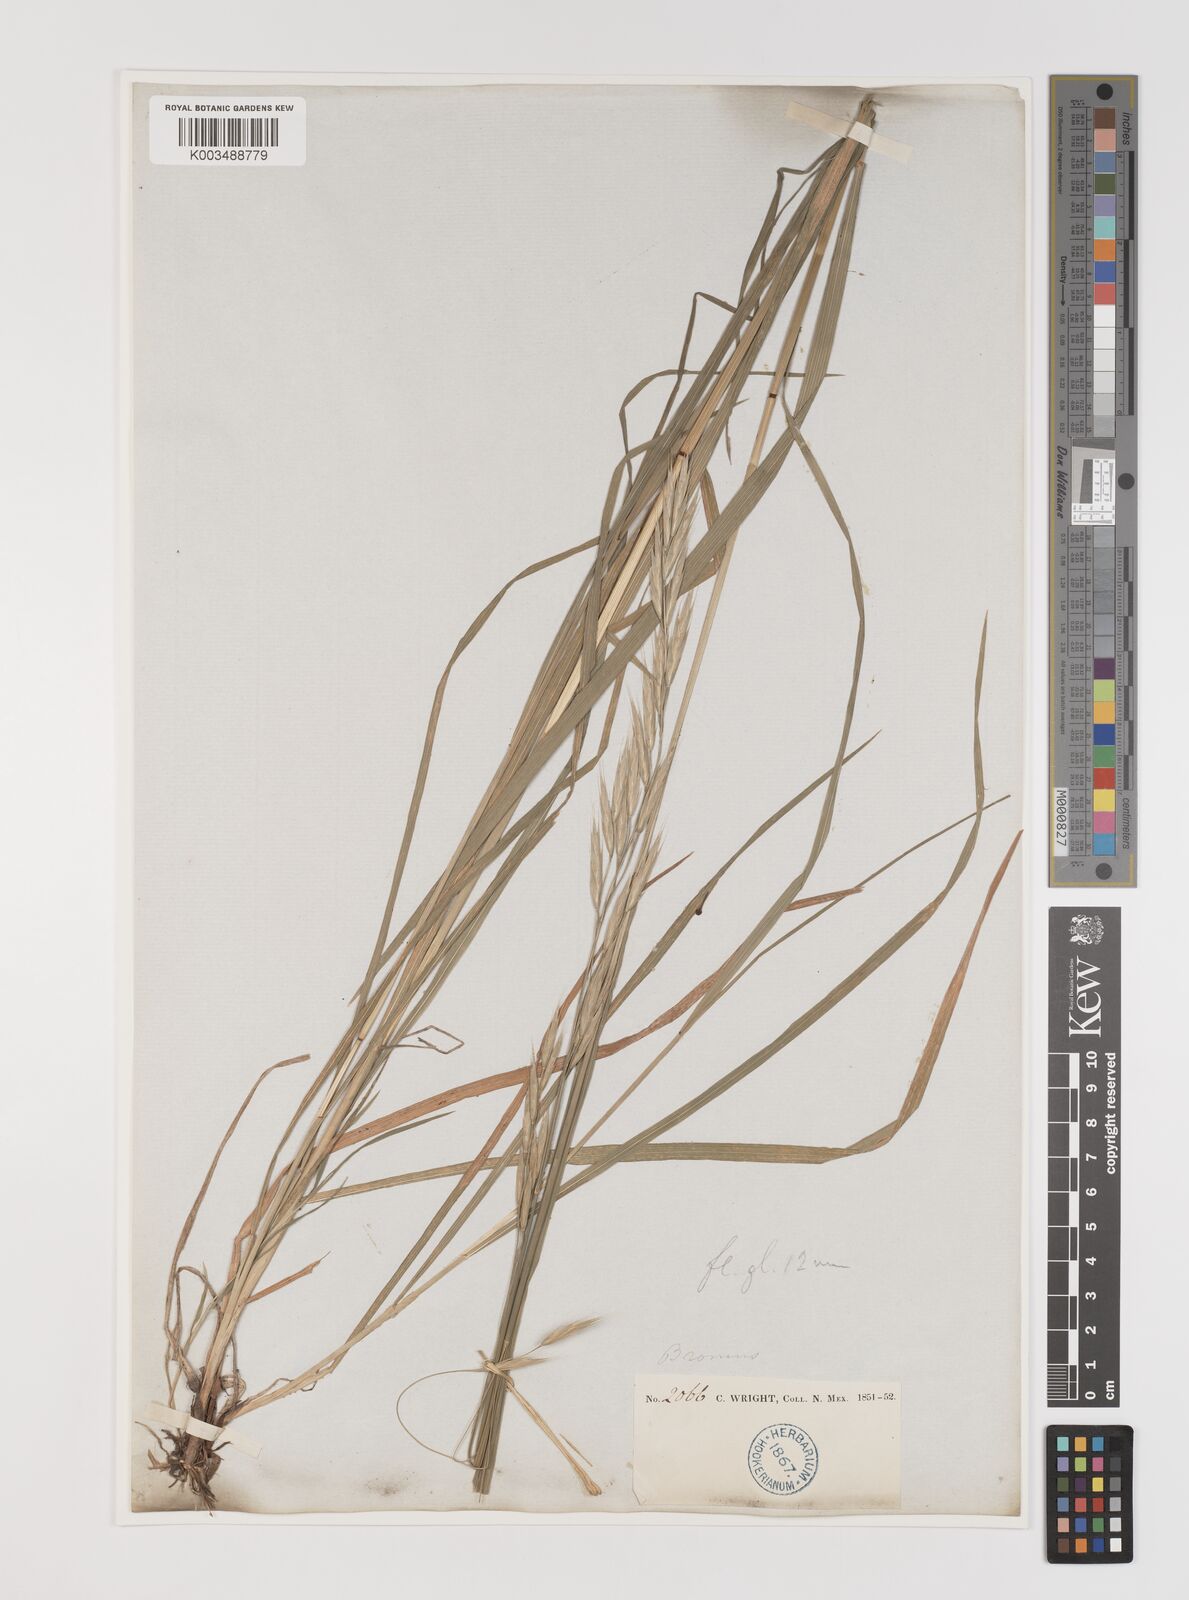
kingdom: Plantae
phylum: Tracheophyta
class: Liliopsida
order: Poales
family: Poaceae
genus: Bromus
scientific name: Bromus
